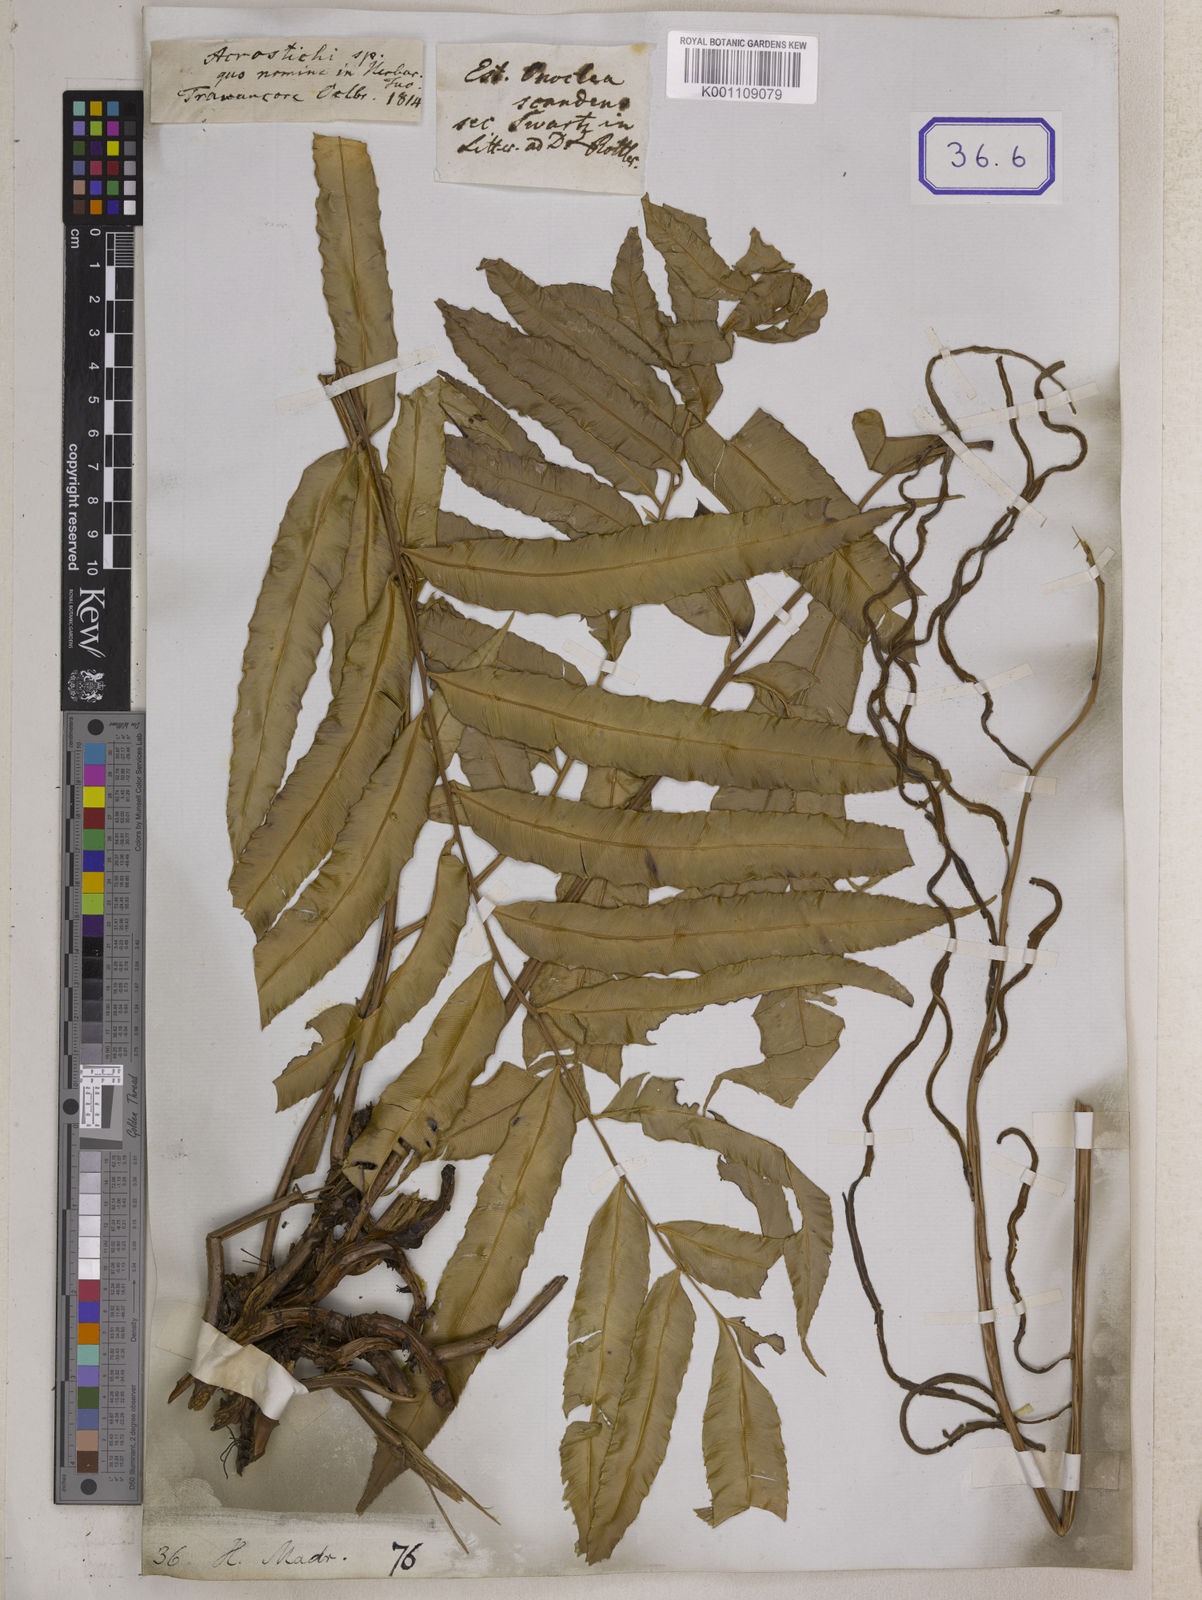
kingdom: Plantae
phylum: Tracheophyta
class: Polypodiopsida
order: Polypodiales
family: Blechnaceae
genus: Stenochlaena
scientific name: Stenochlaena palustris
